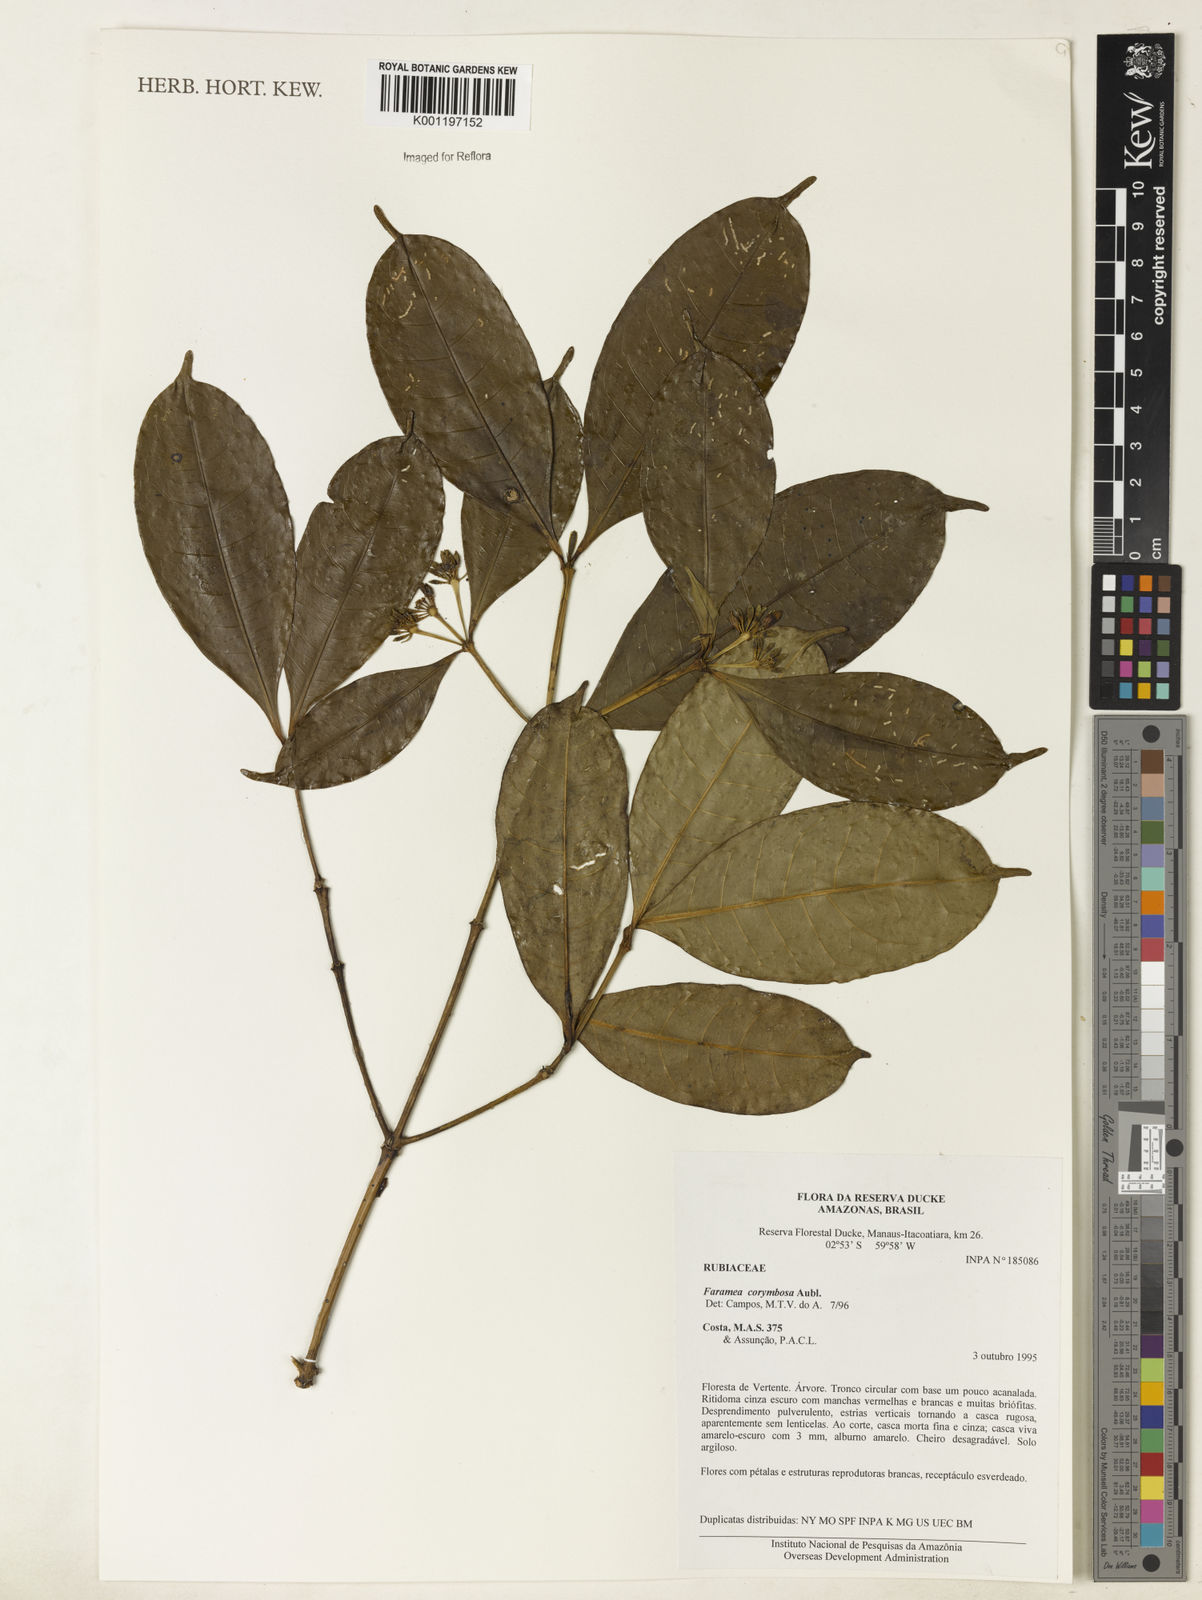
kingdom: Plantae
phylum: Tracheophyta
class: Magnoliopsida
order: Gentianales
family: Rubiaceae
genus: Faramea
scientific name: Faramea corymbosa
